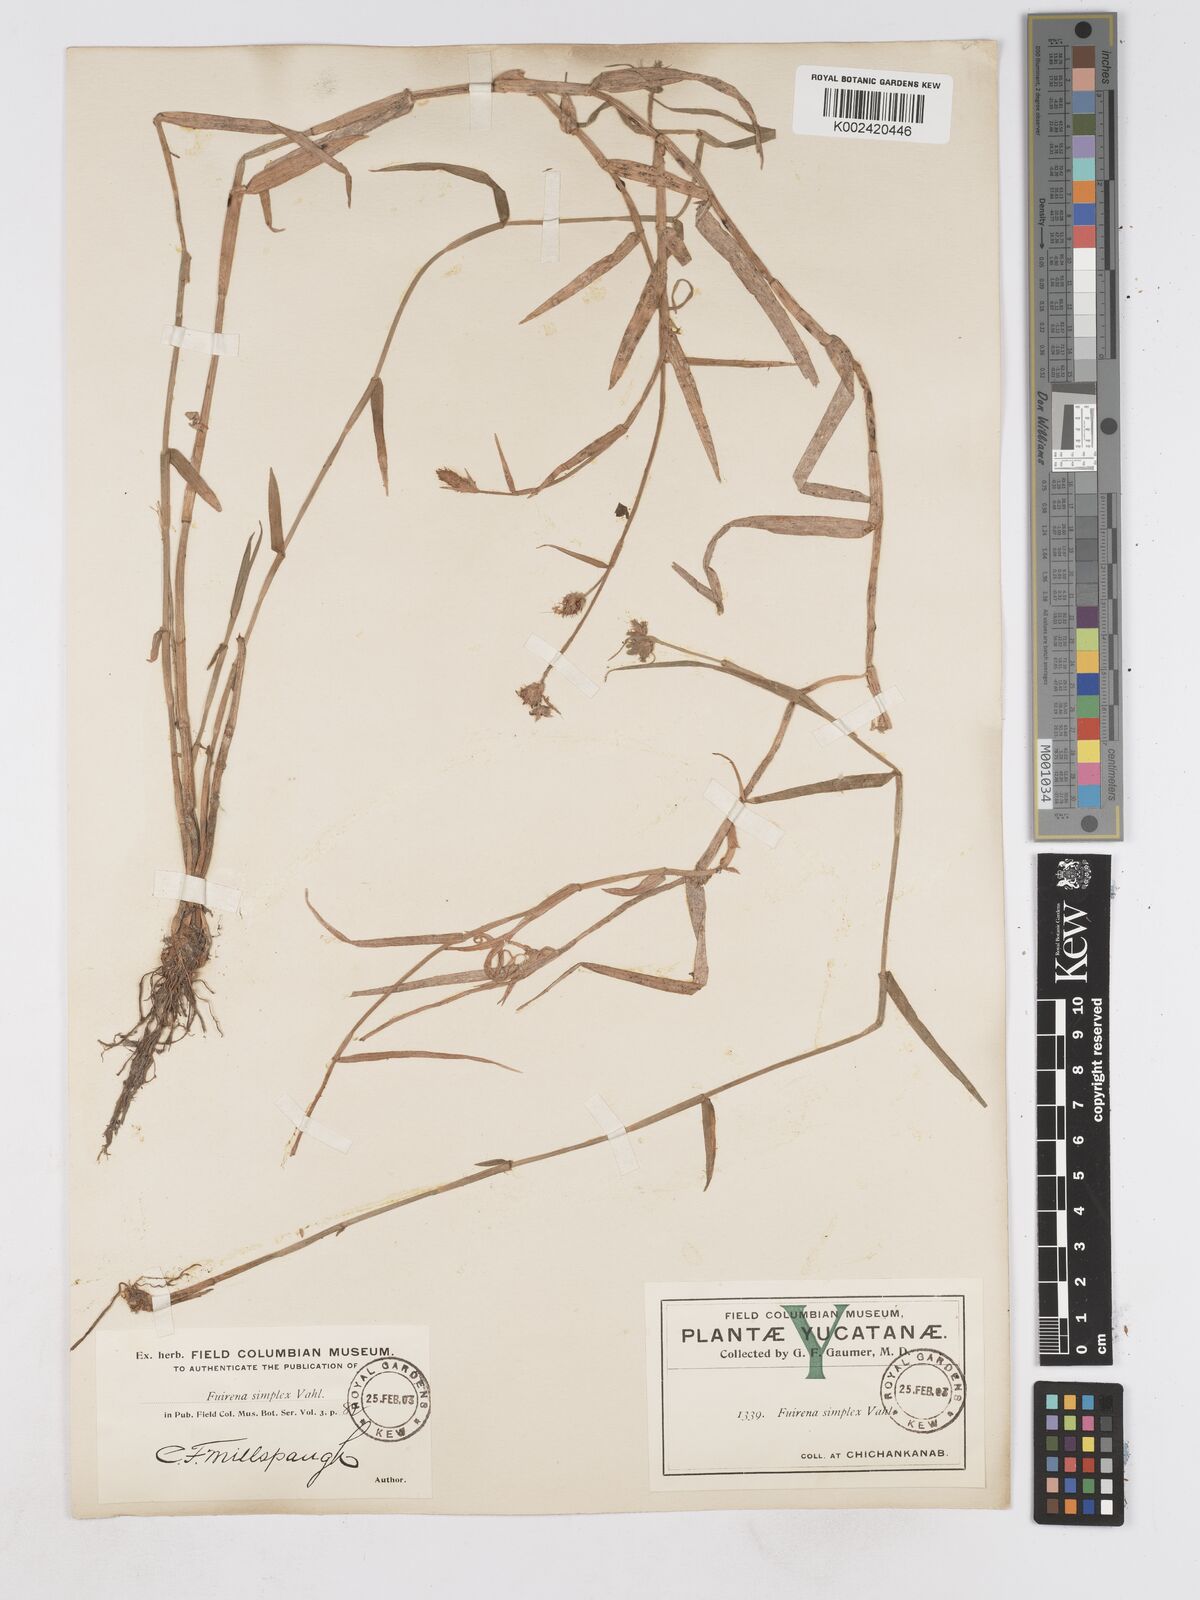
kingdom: Plantae
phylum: Tracheophyta
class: Liliopsida
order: Poales
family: Cyperaceae
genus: Fuirena
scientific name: Fuirena simplex
